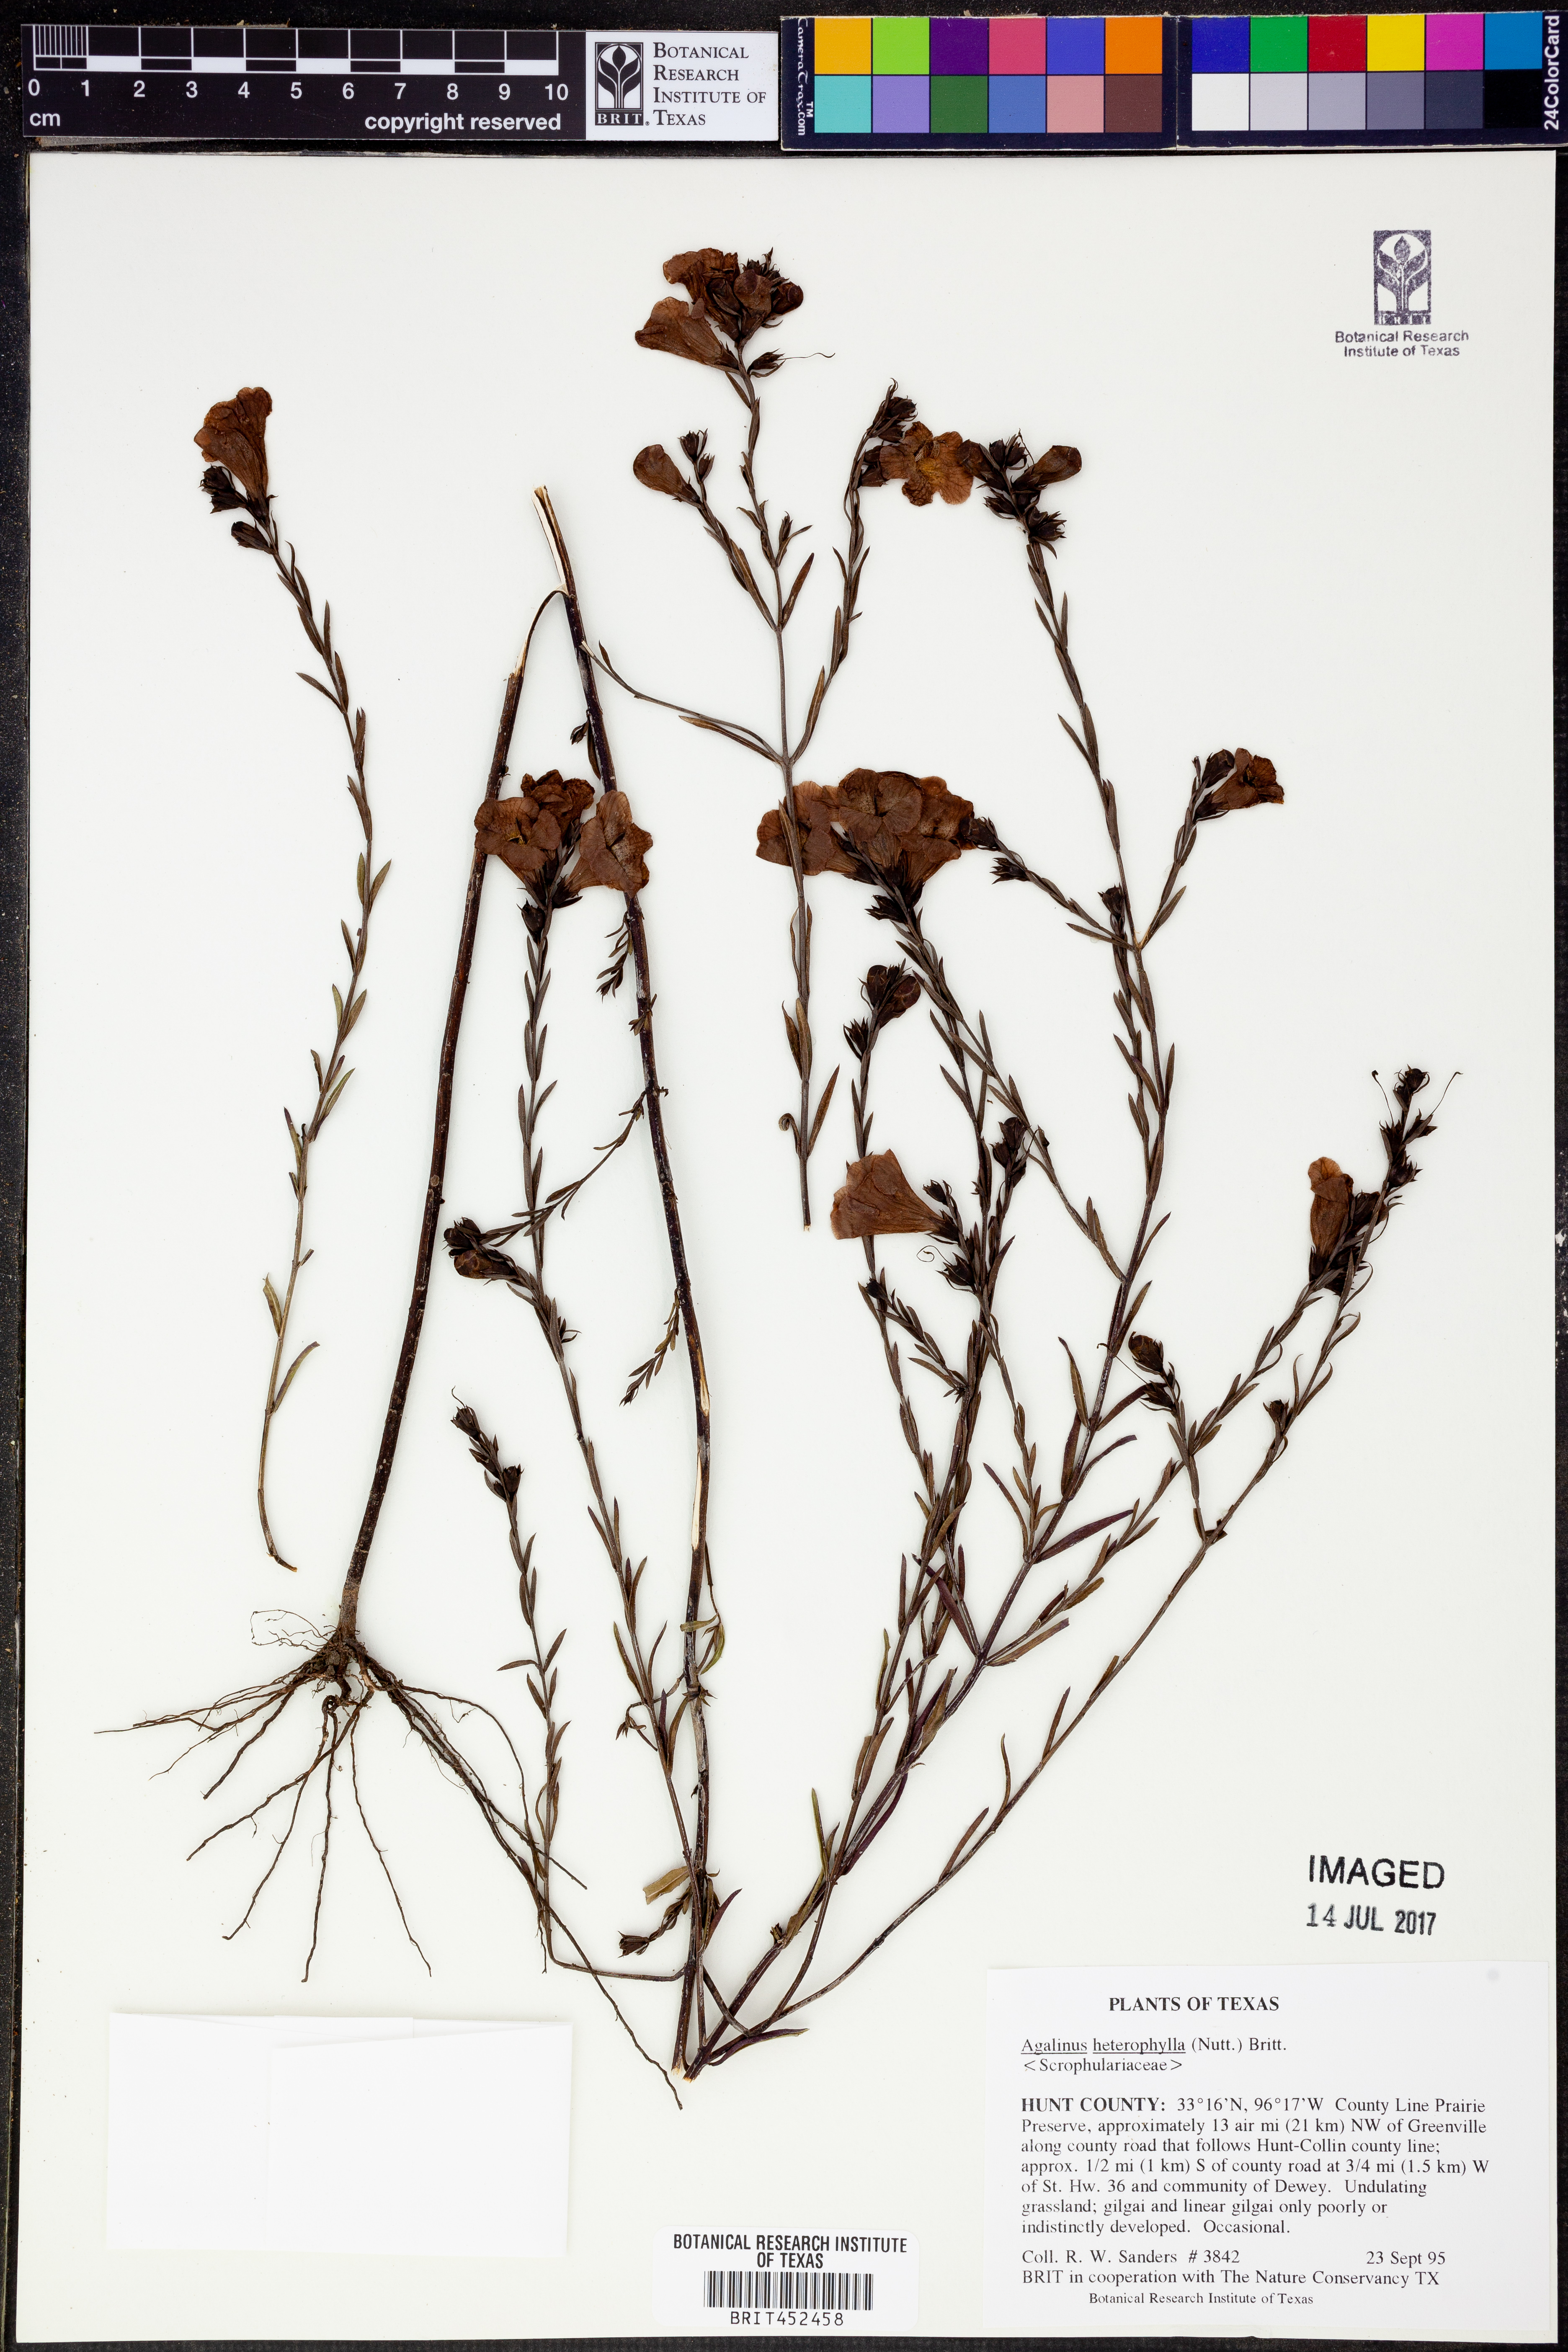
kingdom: Plantae
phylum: Tracheophyta
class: Magnoliopsida
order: Lamiales
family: Orobanchaceae
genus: Agalinis
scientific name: Agalinis heterophylla
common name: Prairie agalinis
